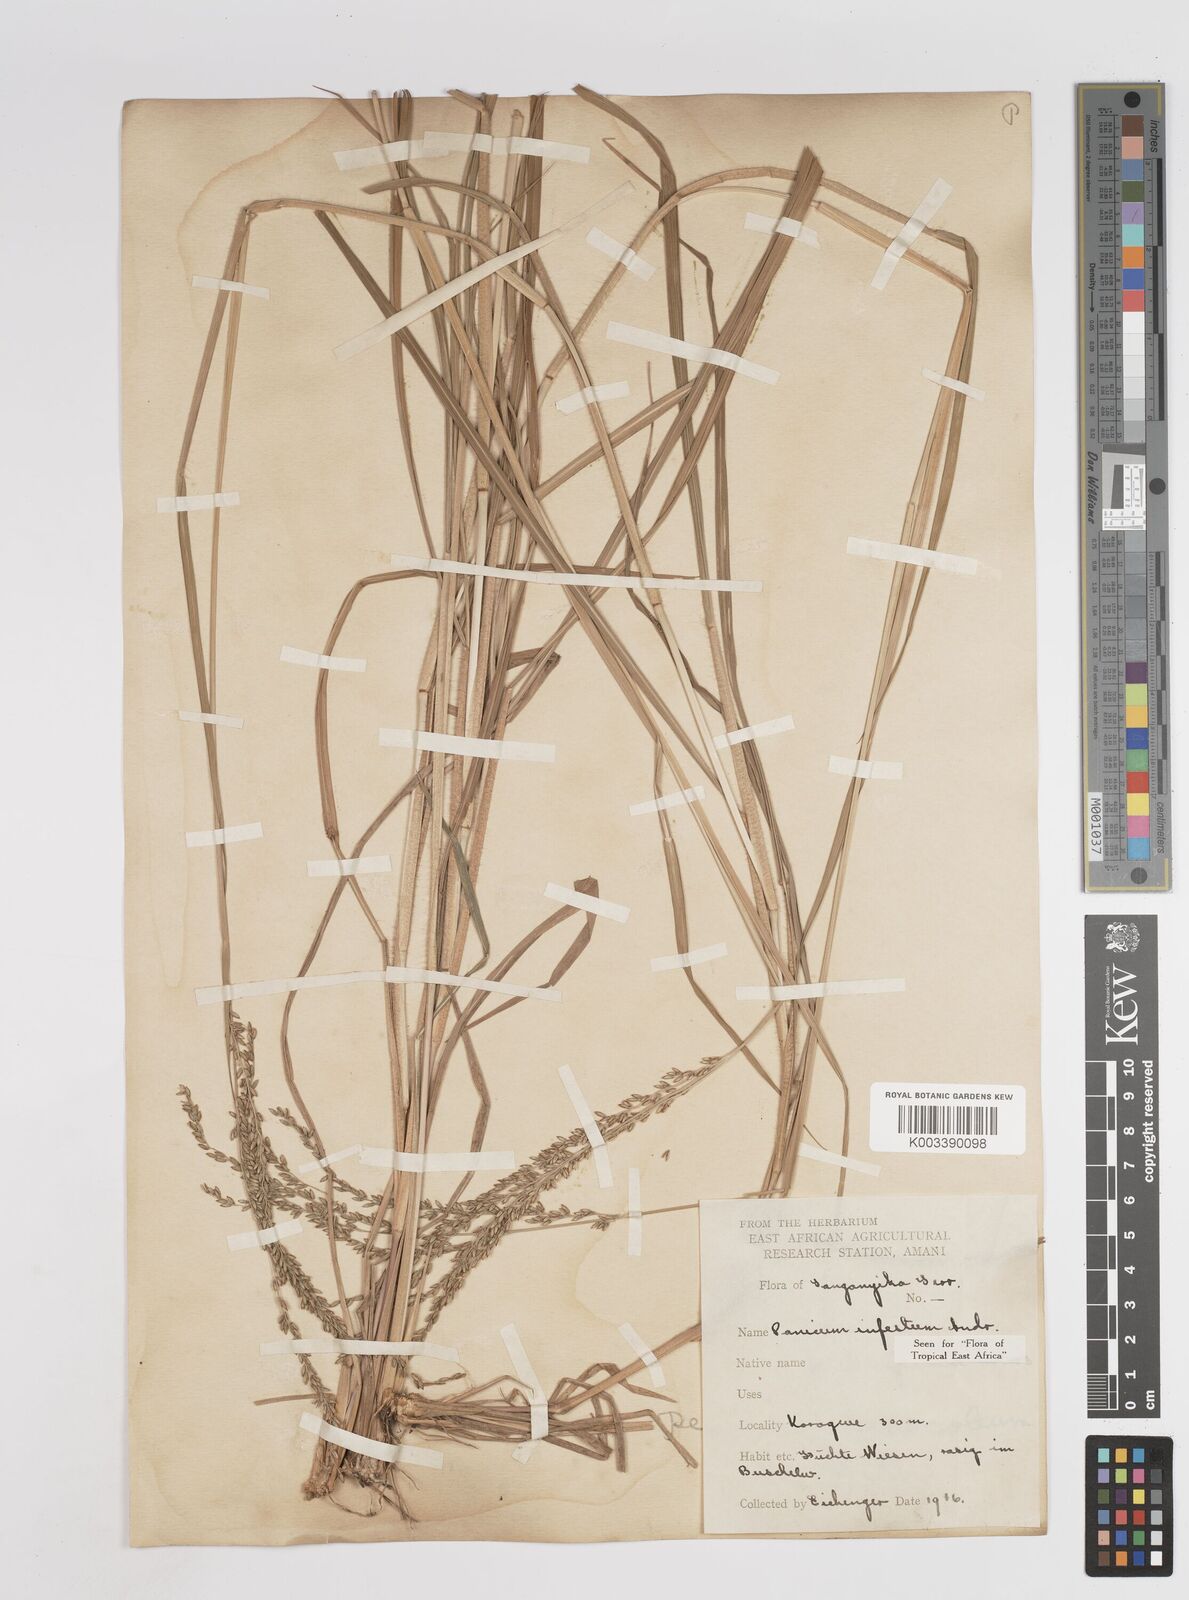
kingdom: Plantae
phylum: Tracheophyta
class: Liliopsida
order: Poales
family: Poaceae
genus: Megathyrsus
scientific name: Megathyrsus infestus
